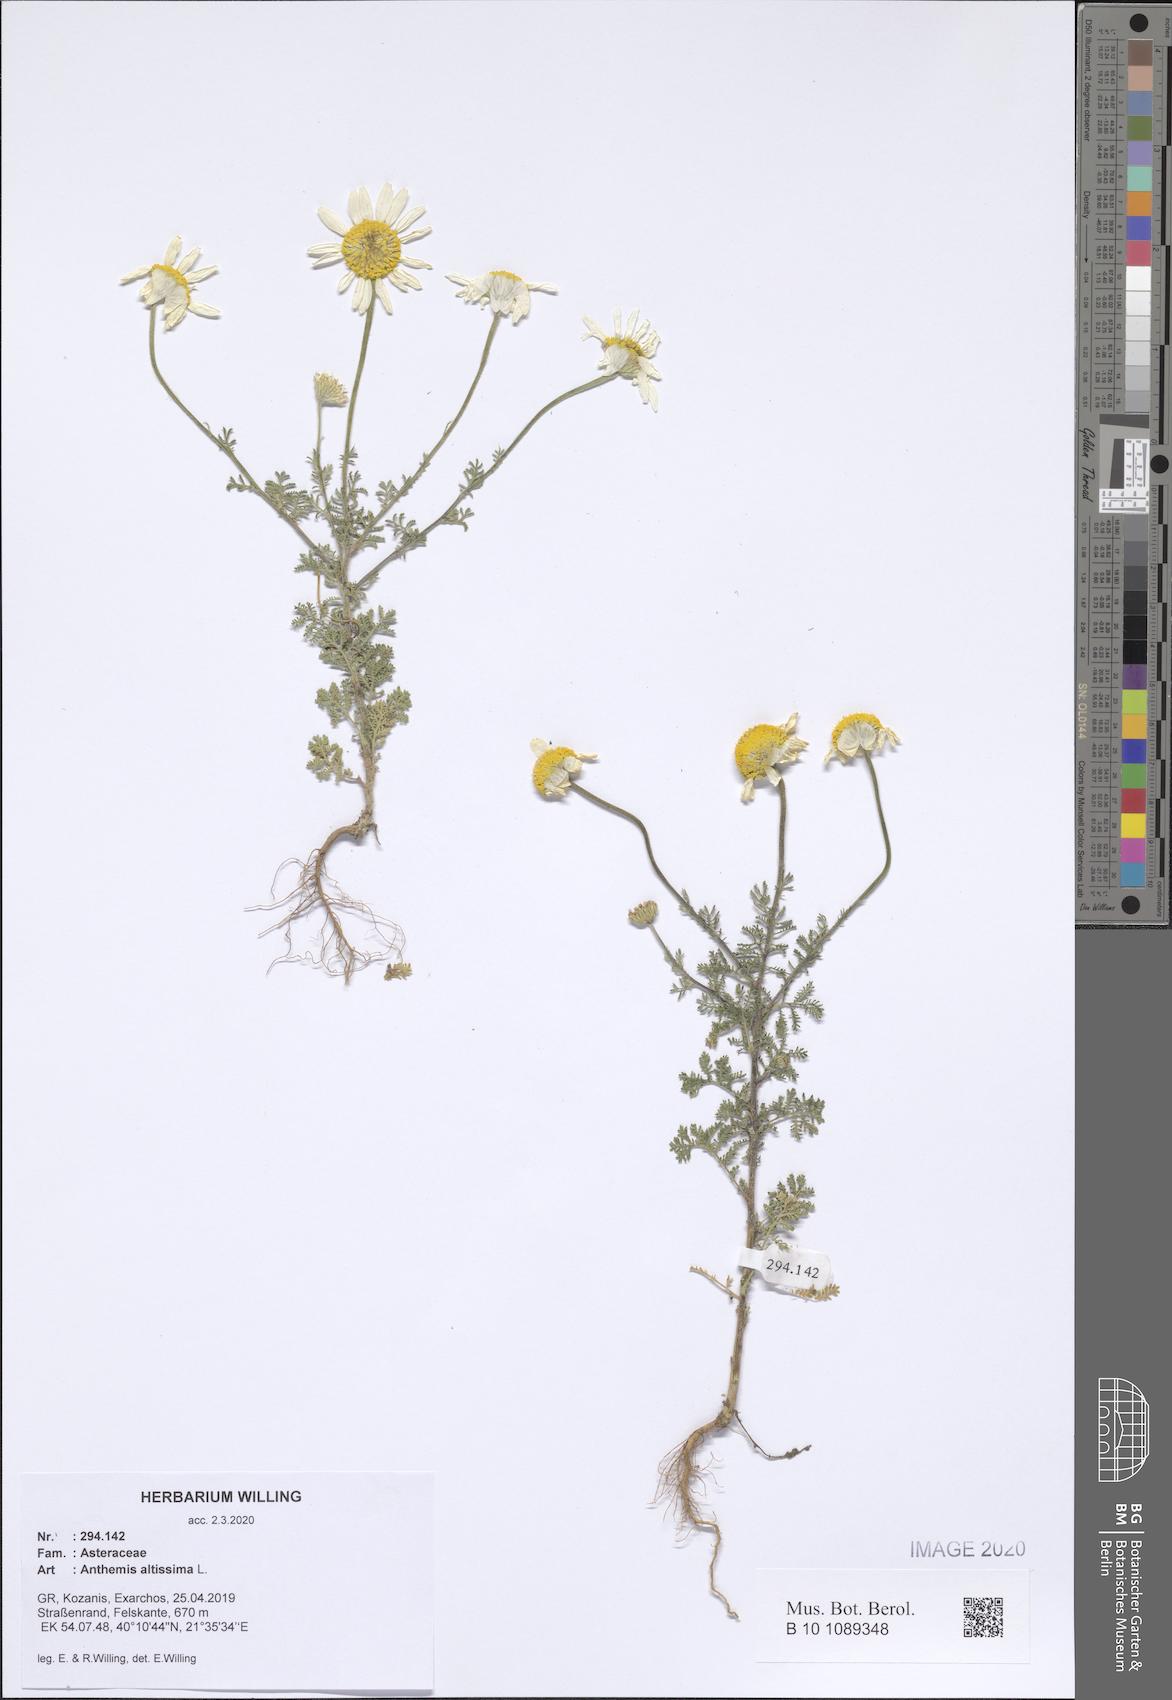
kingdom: Plantae
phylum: Tracheophyta
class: Magnoliopsida
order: Asterales
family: Asteraceae
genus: Cota
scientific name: Cota altissima
